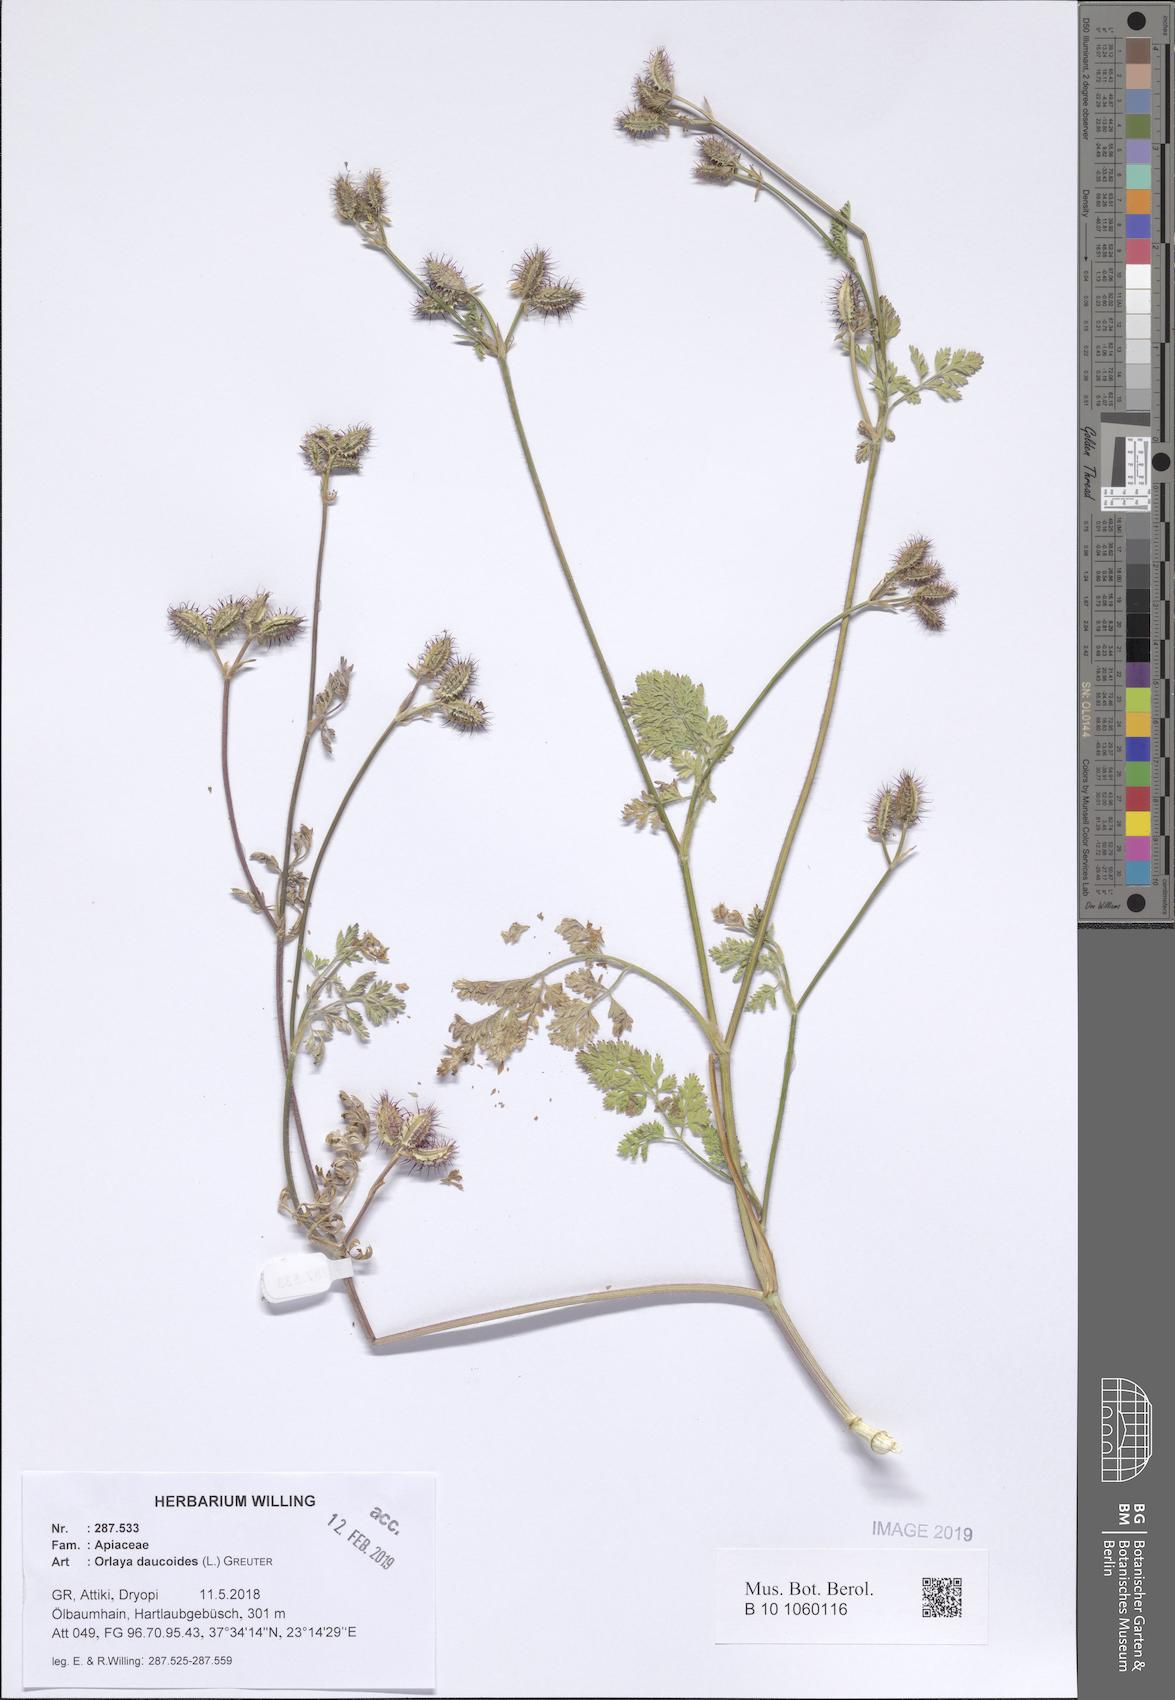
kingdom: Plantae
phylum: Tracheophyta
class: Magnoliopsida
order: Apiales
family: Apiaceae
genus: Orlaya
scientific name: Orlaya daucoides
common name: Flat-fruit orlaya
